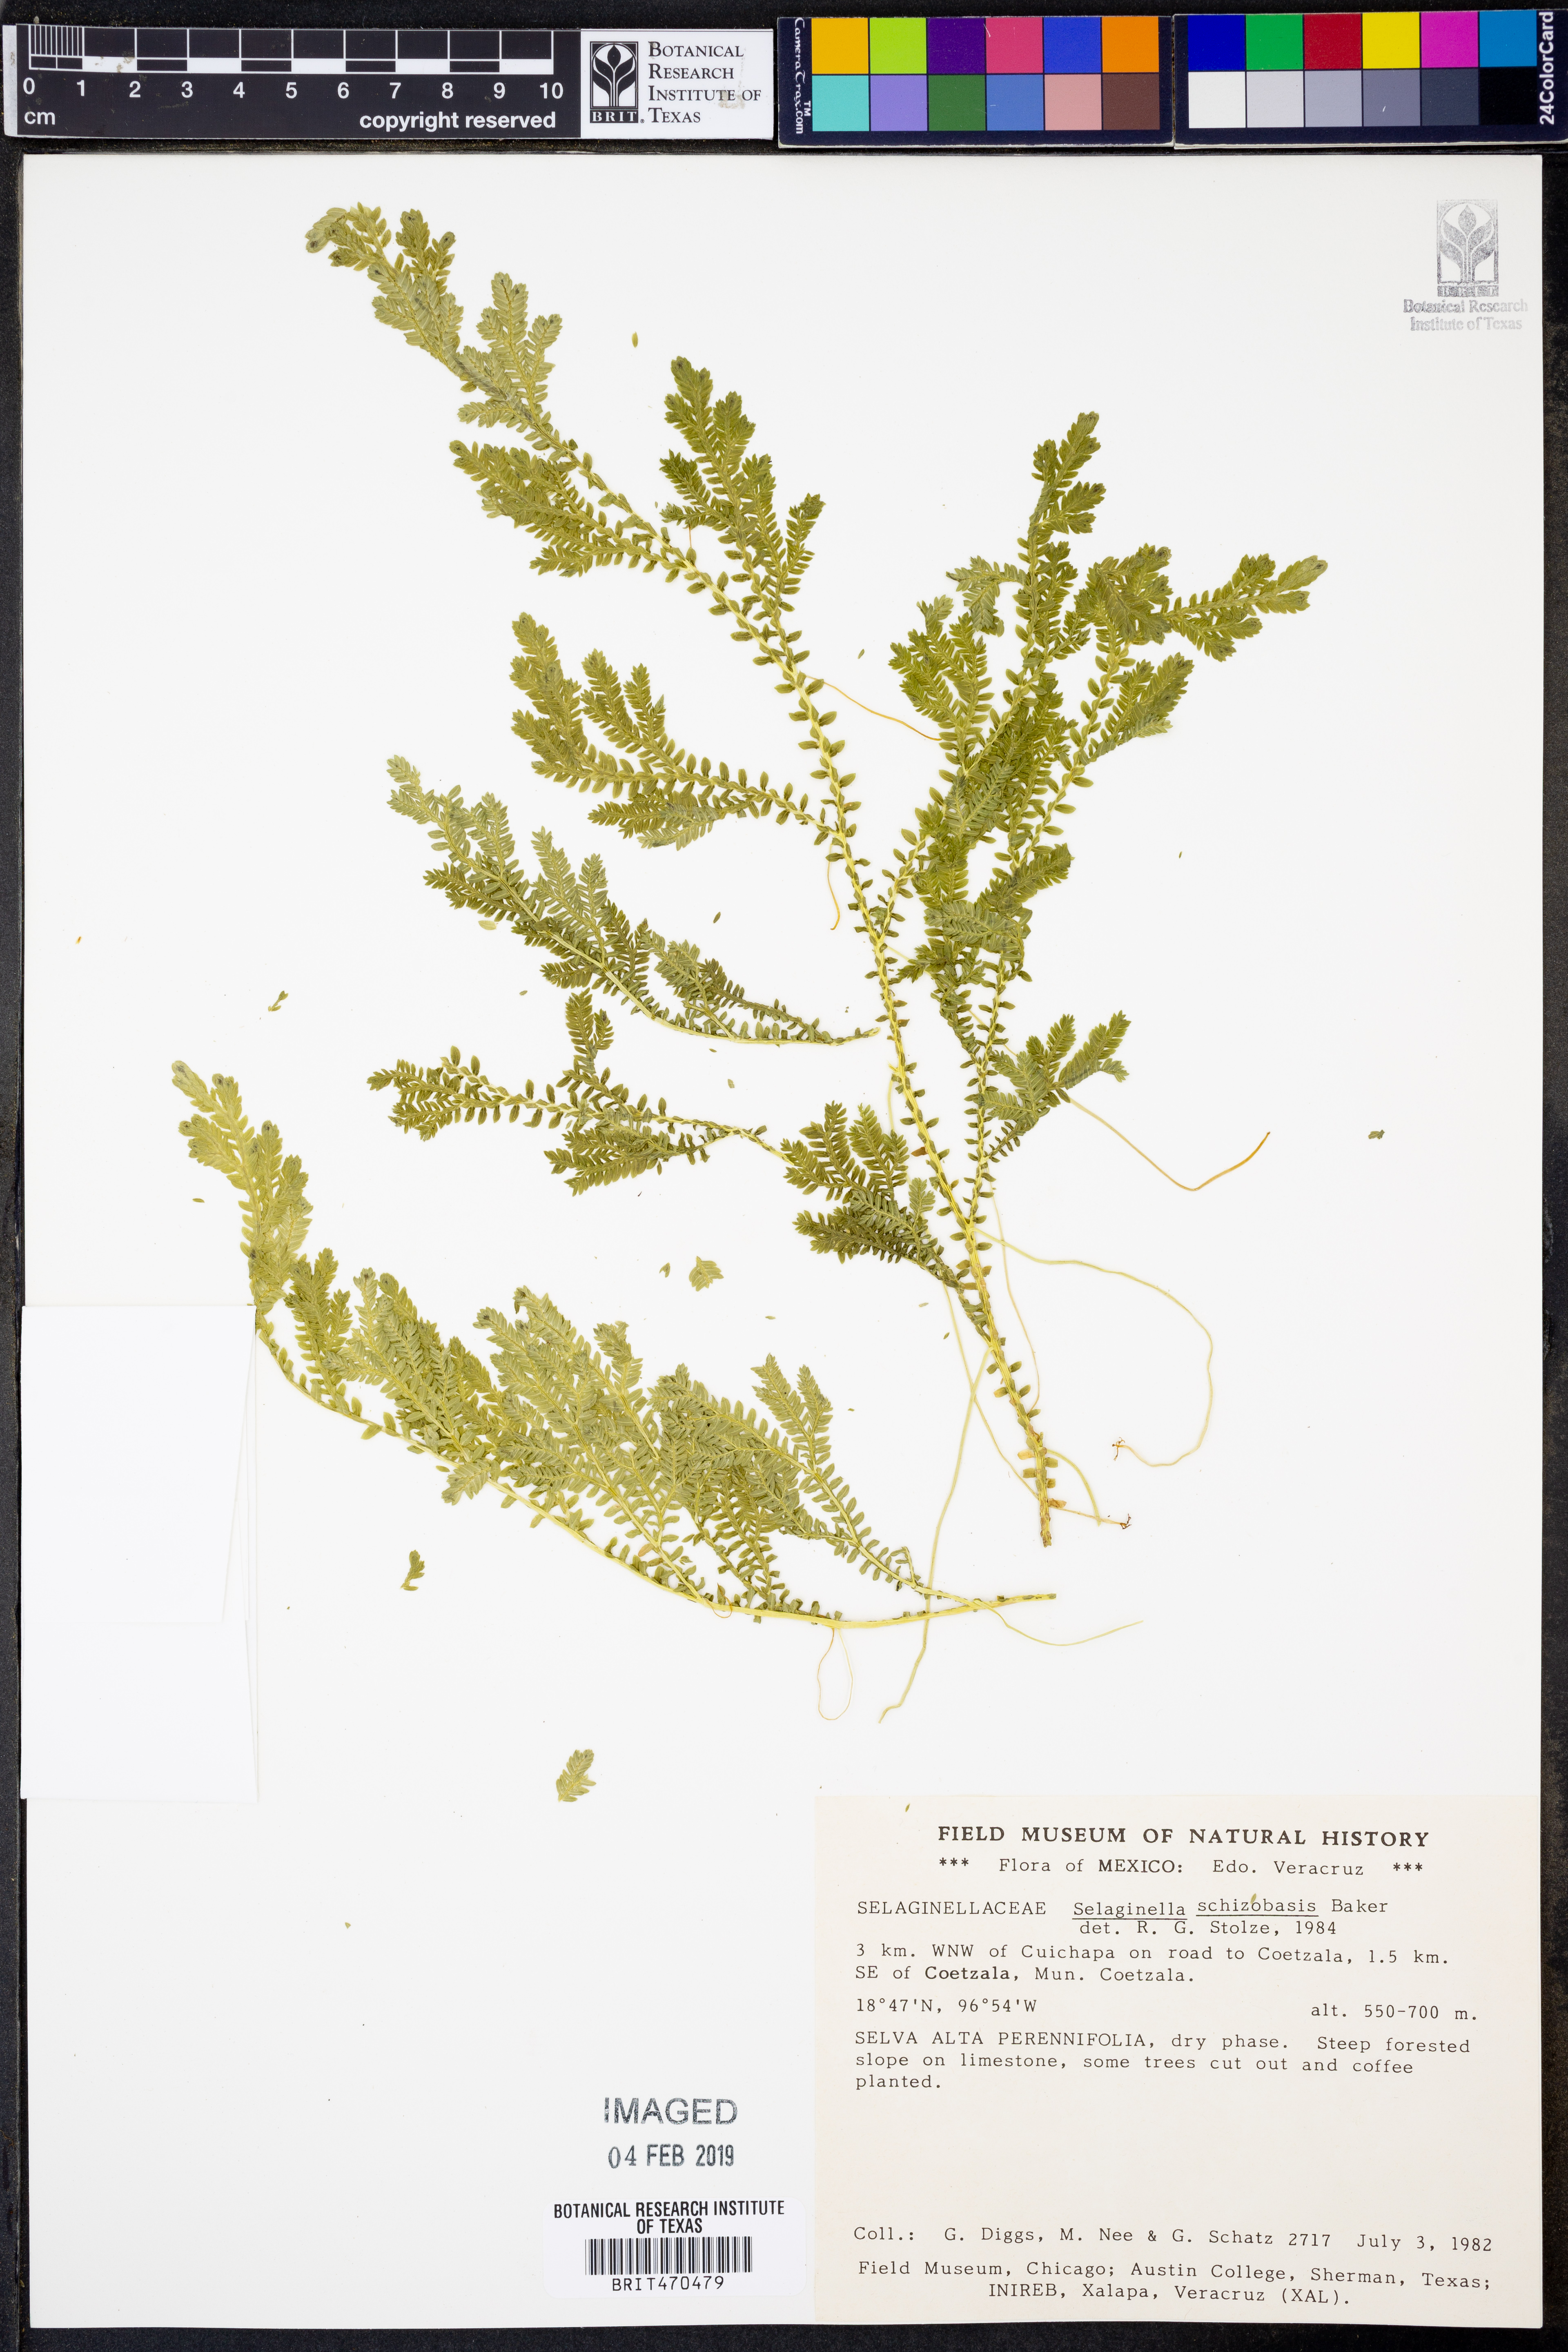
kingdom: Plantae
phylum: Tracheophyta
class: Lycopodiopsida
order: Selaginellales
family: Selaginellaceae
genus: Selaginella
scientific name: Selaginella schizobasis
